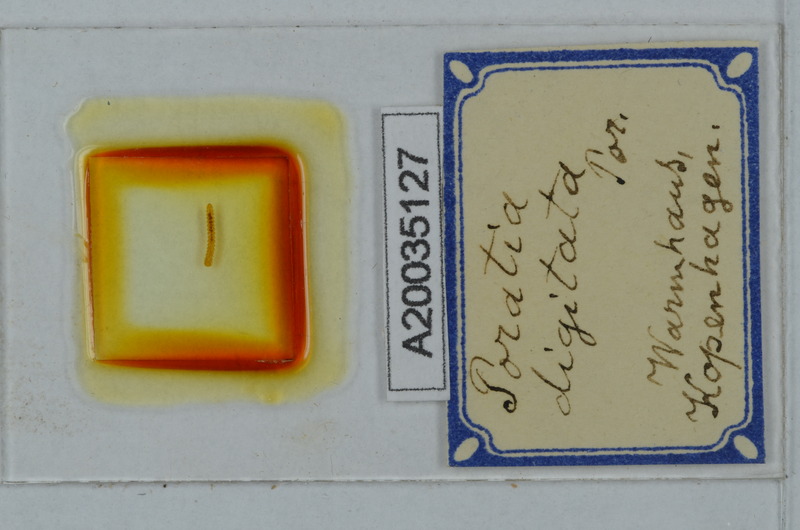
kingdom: Animalia
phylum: Arthropoda
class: Diplopoda
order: Polydesmida
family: Pyrgodesmidae
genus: Poratia
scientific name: Poratia digitata
